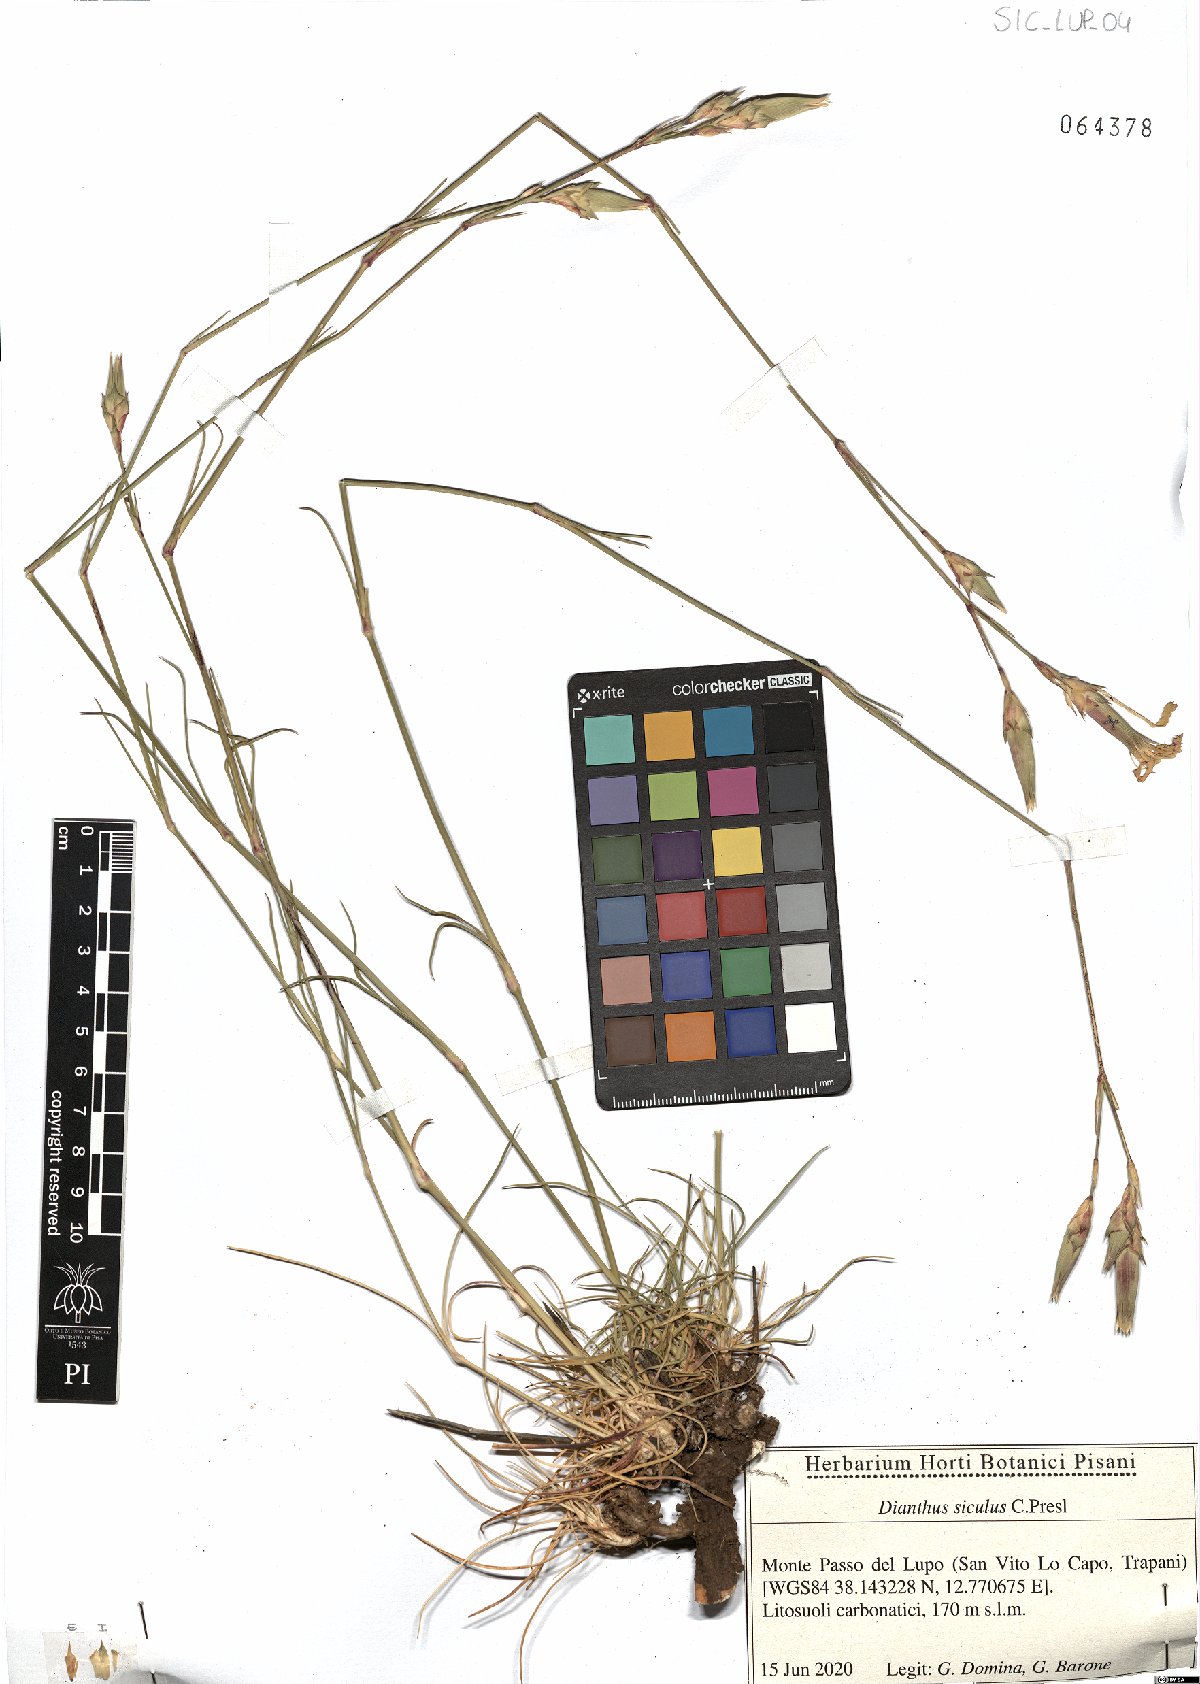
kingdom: Plantae
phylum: Tracheophyta
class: Magnoliopsida
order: Caryophyllales
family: Caryophyllaceae
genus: Dianthus
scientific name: Dianthus siculus
